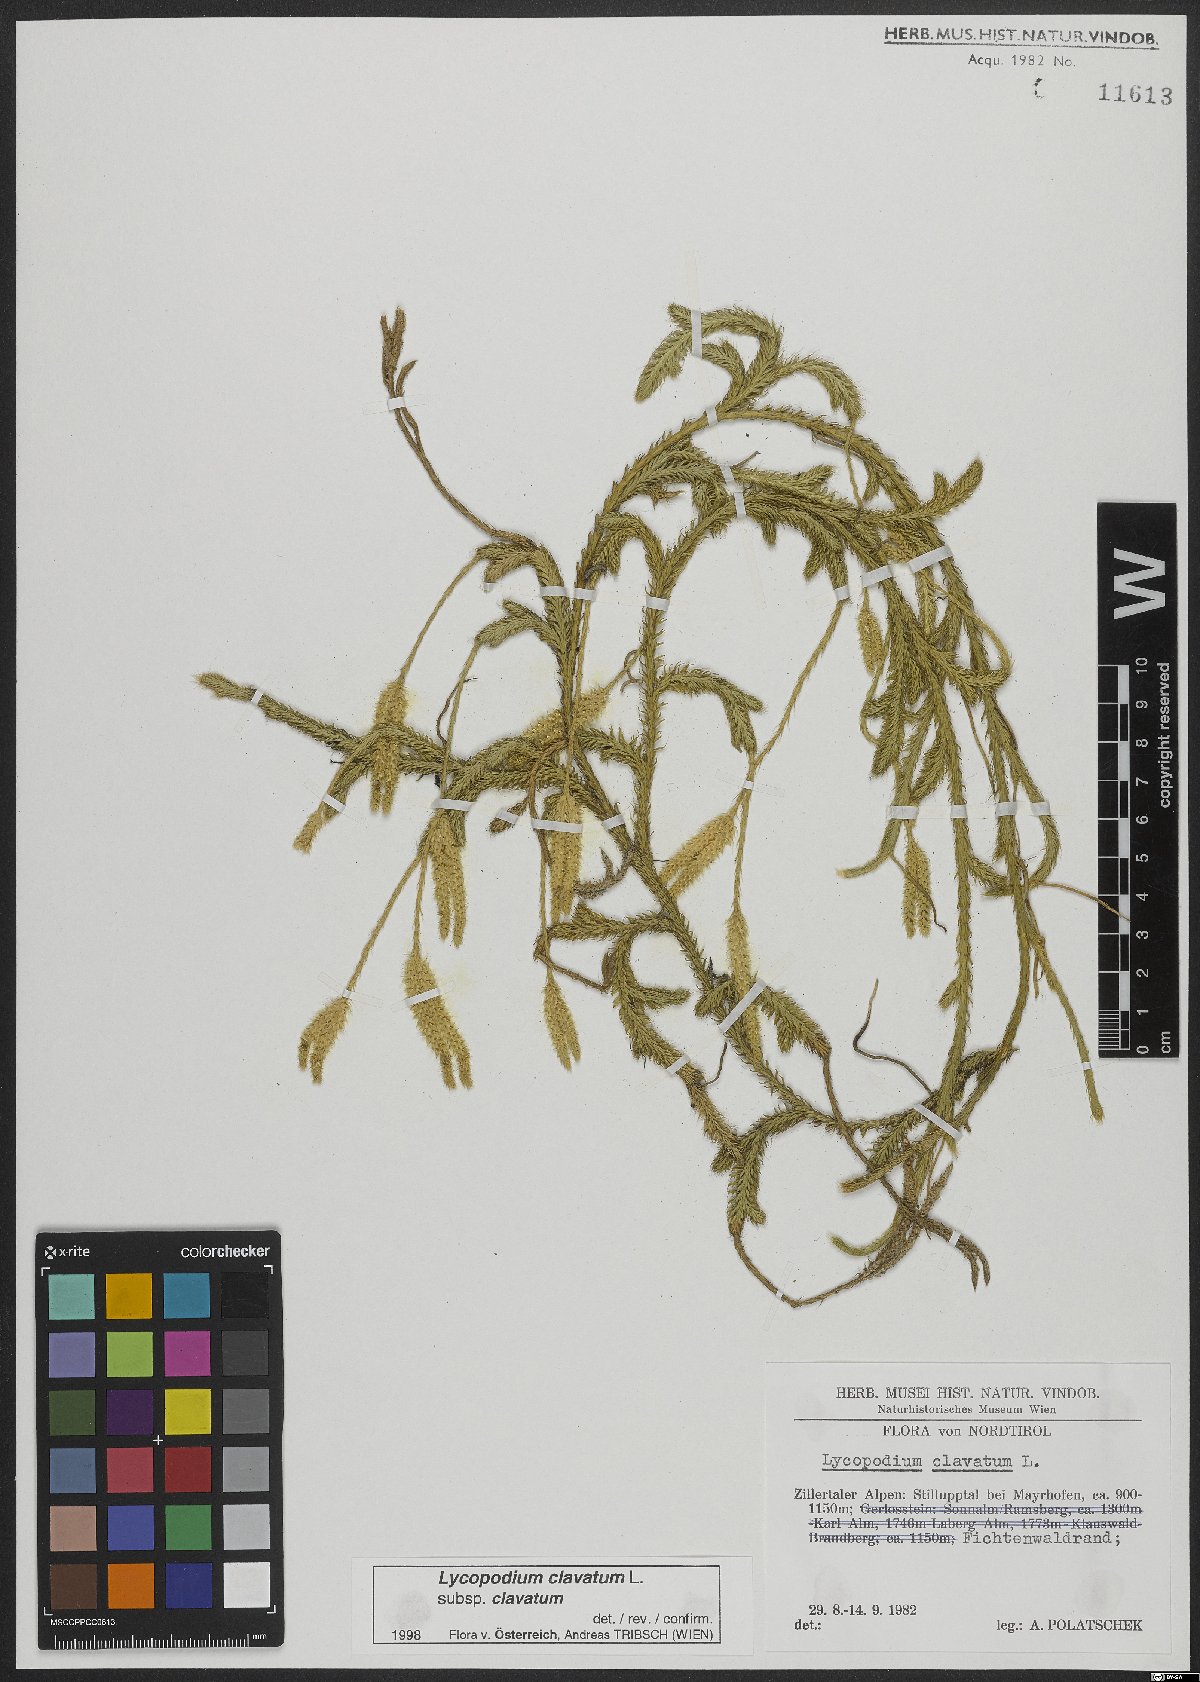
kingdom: Plantae
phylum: Tracheophyta
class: Lycopodiopsida
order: Lycopodiales
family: Lycopodiaceae
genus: Lycopodium
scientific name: Lycopodium clavatum
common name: Stag's-horn clubmoss
